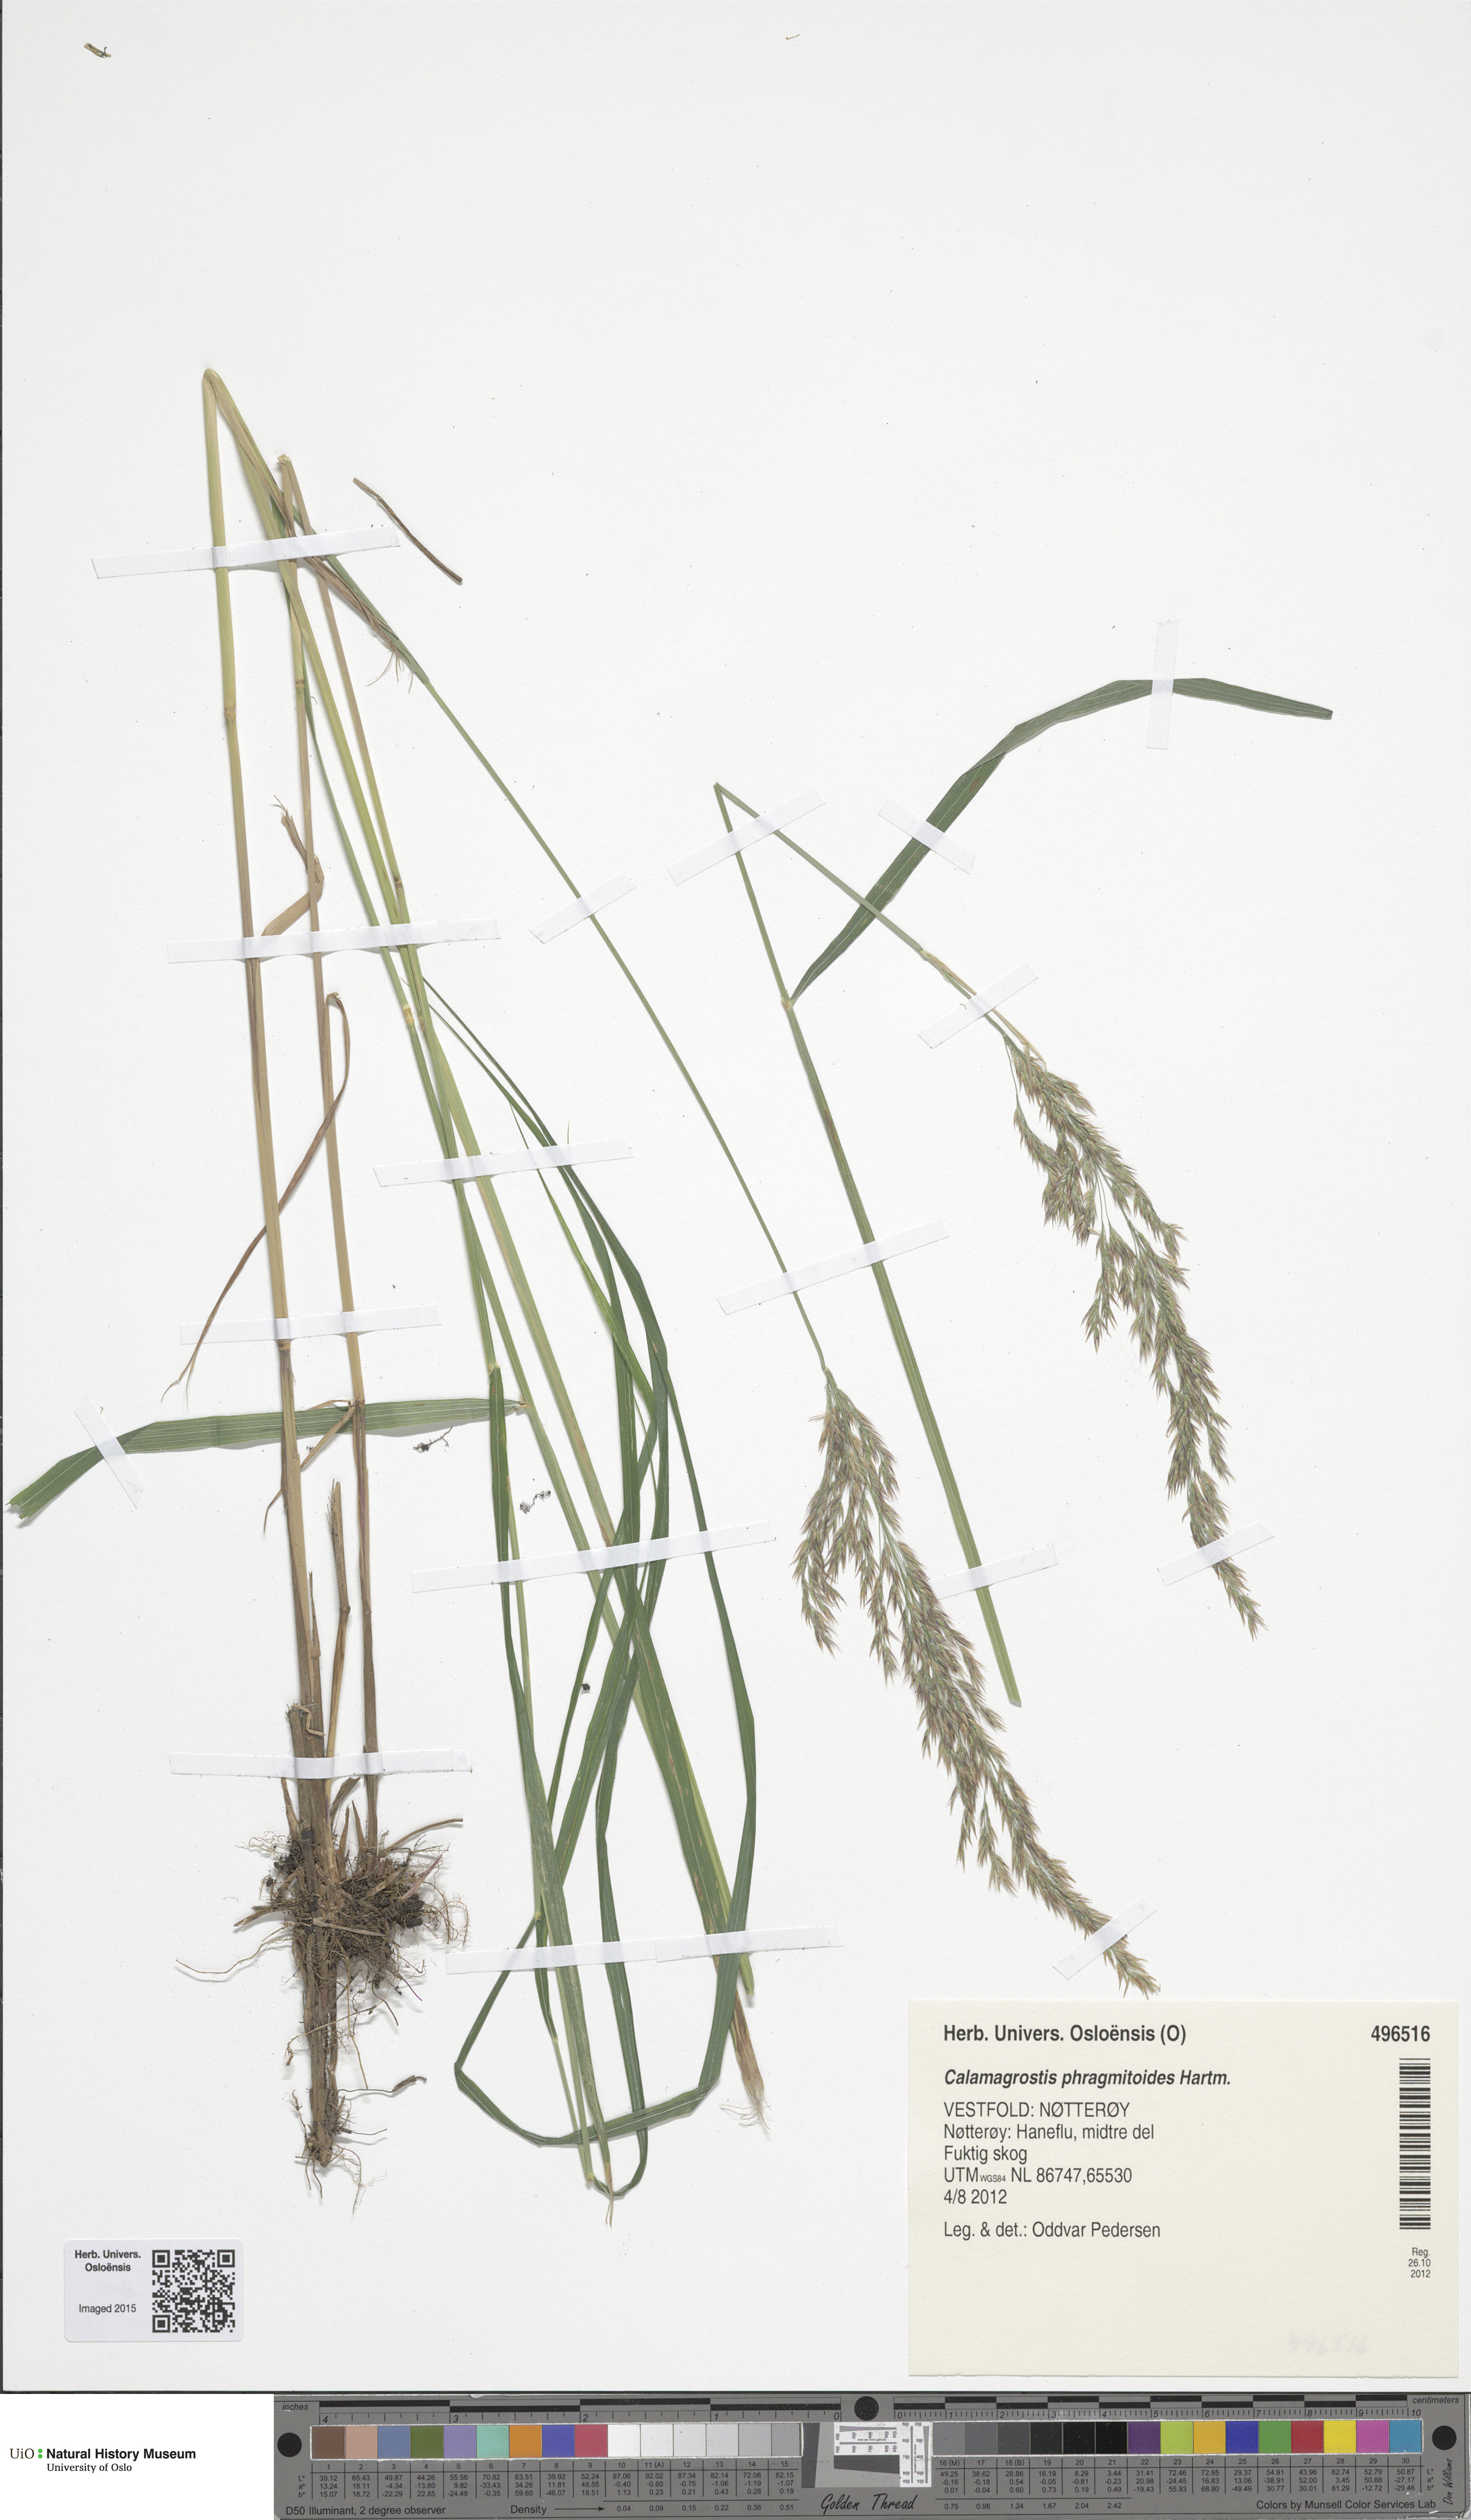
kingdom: Plantae
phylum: Tracheophyta
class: Liliopsida
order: Poales
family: Poaceae
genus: Calamagrostis
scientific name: Calamagrostis canescens
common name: Purple small-reed
